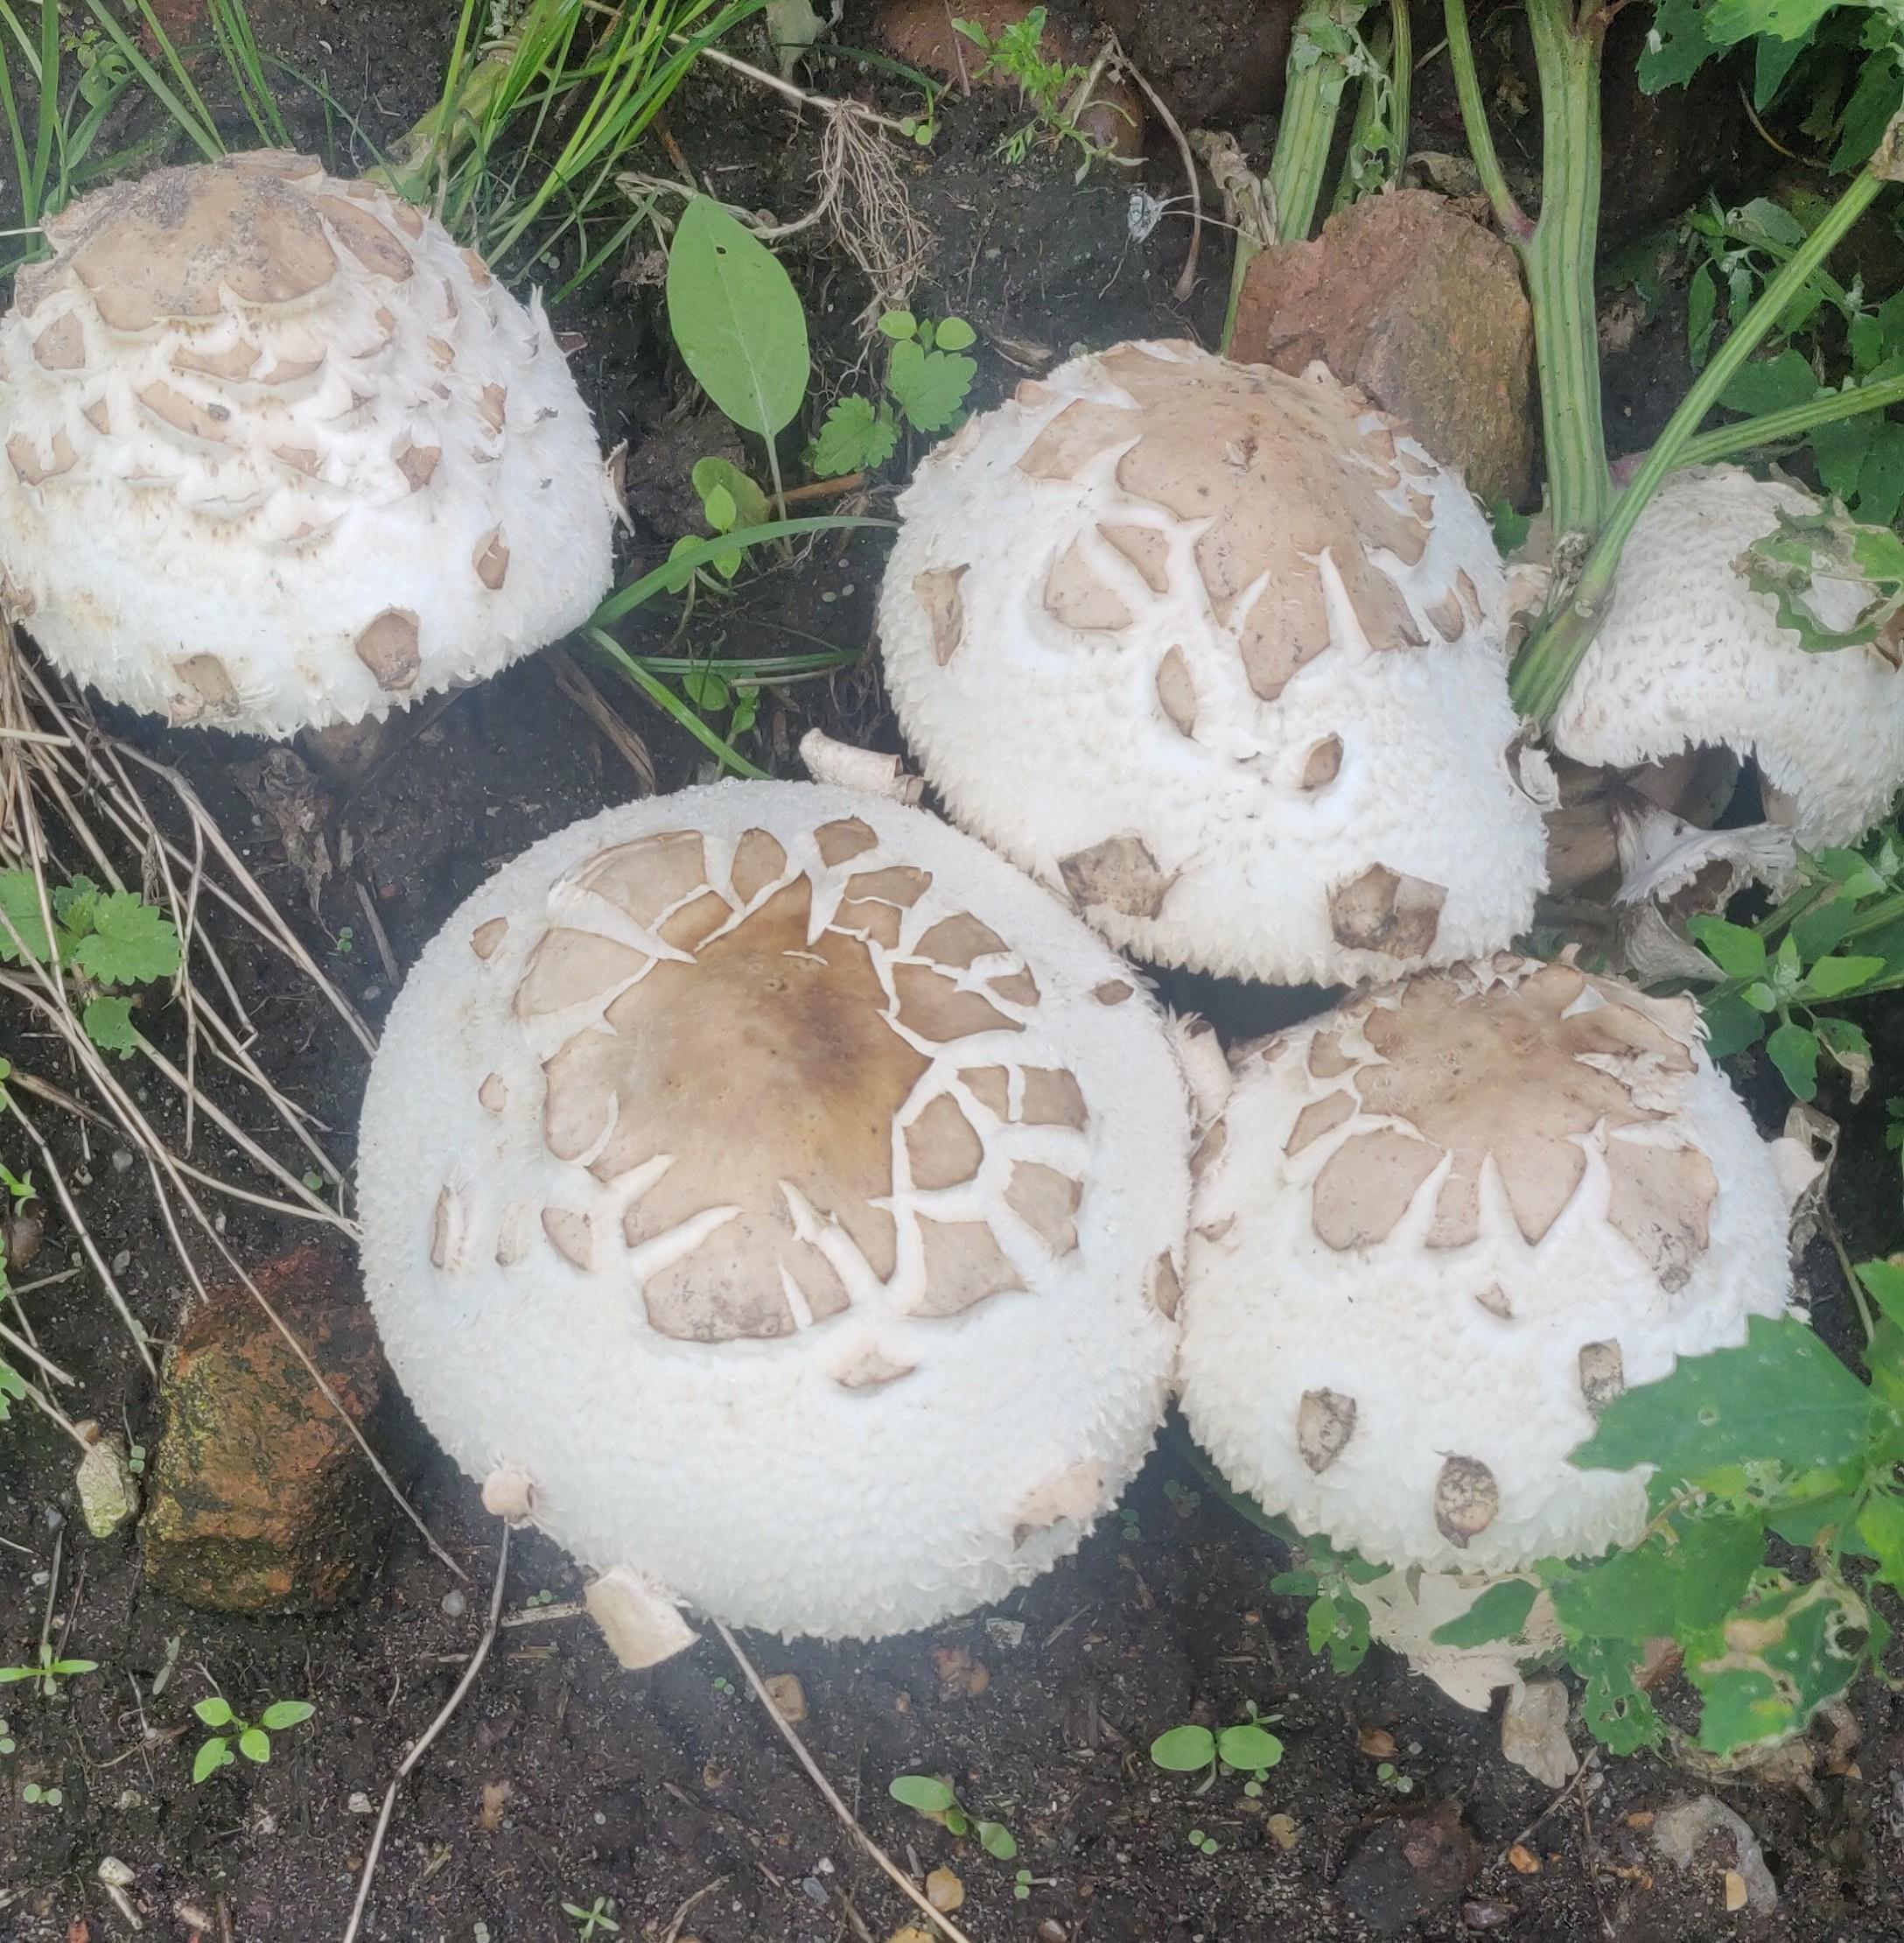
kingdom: Fungi
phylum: Basidiomycota
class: Agaricomycetes
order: Agaricales
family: Agaricaceae
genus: Chlorophyllum
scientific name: Chlorophyllum
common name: rabarberhat
